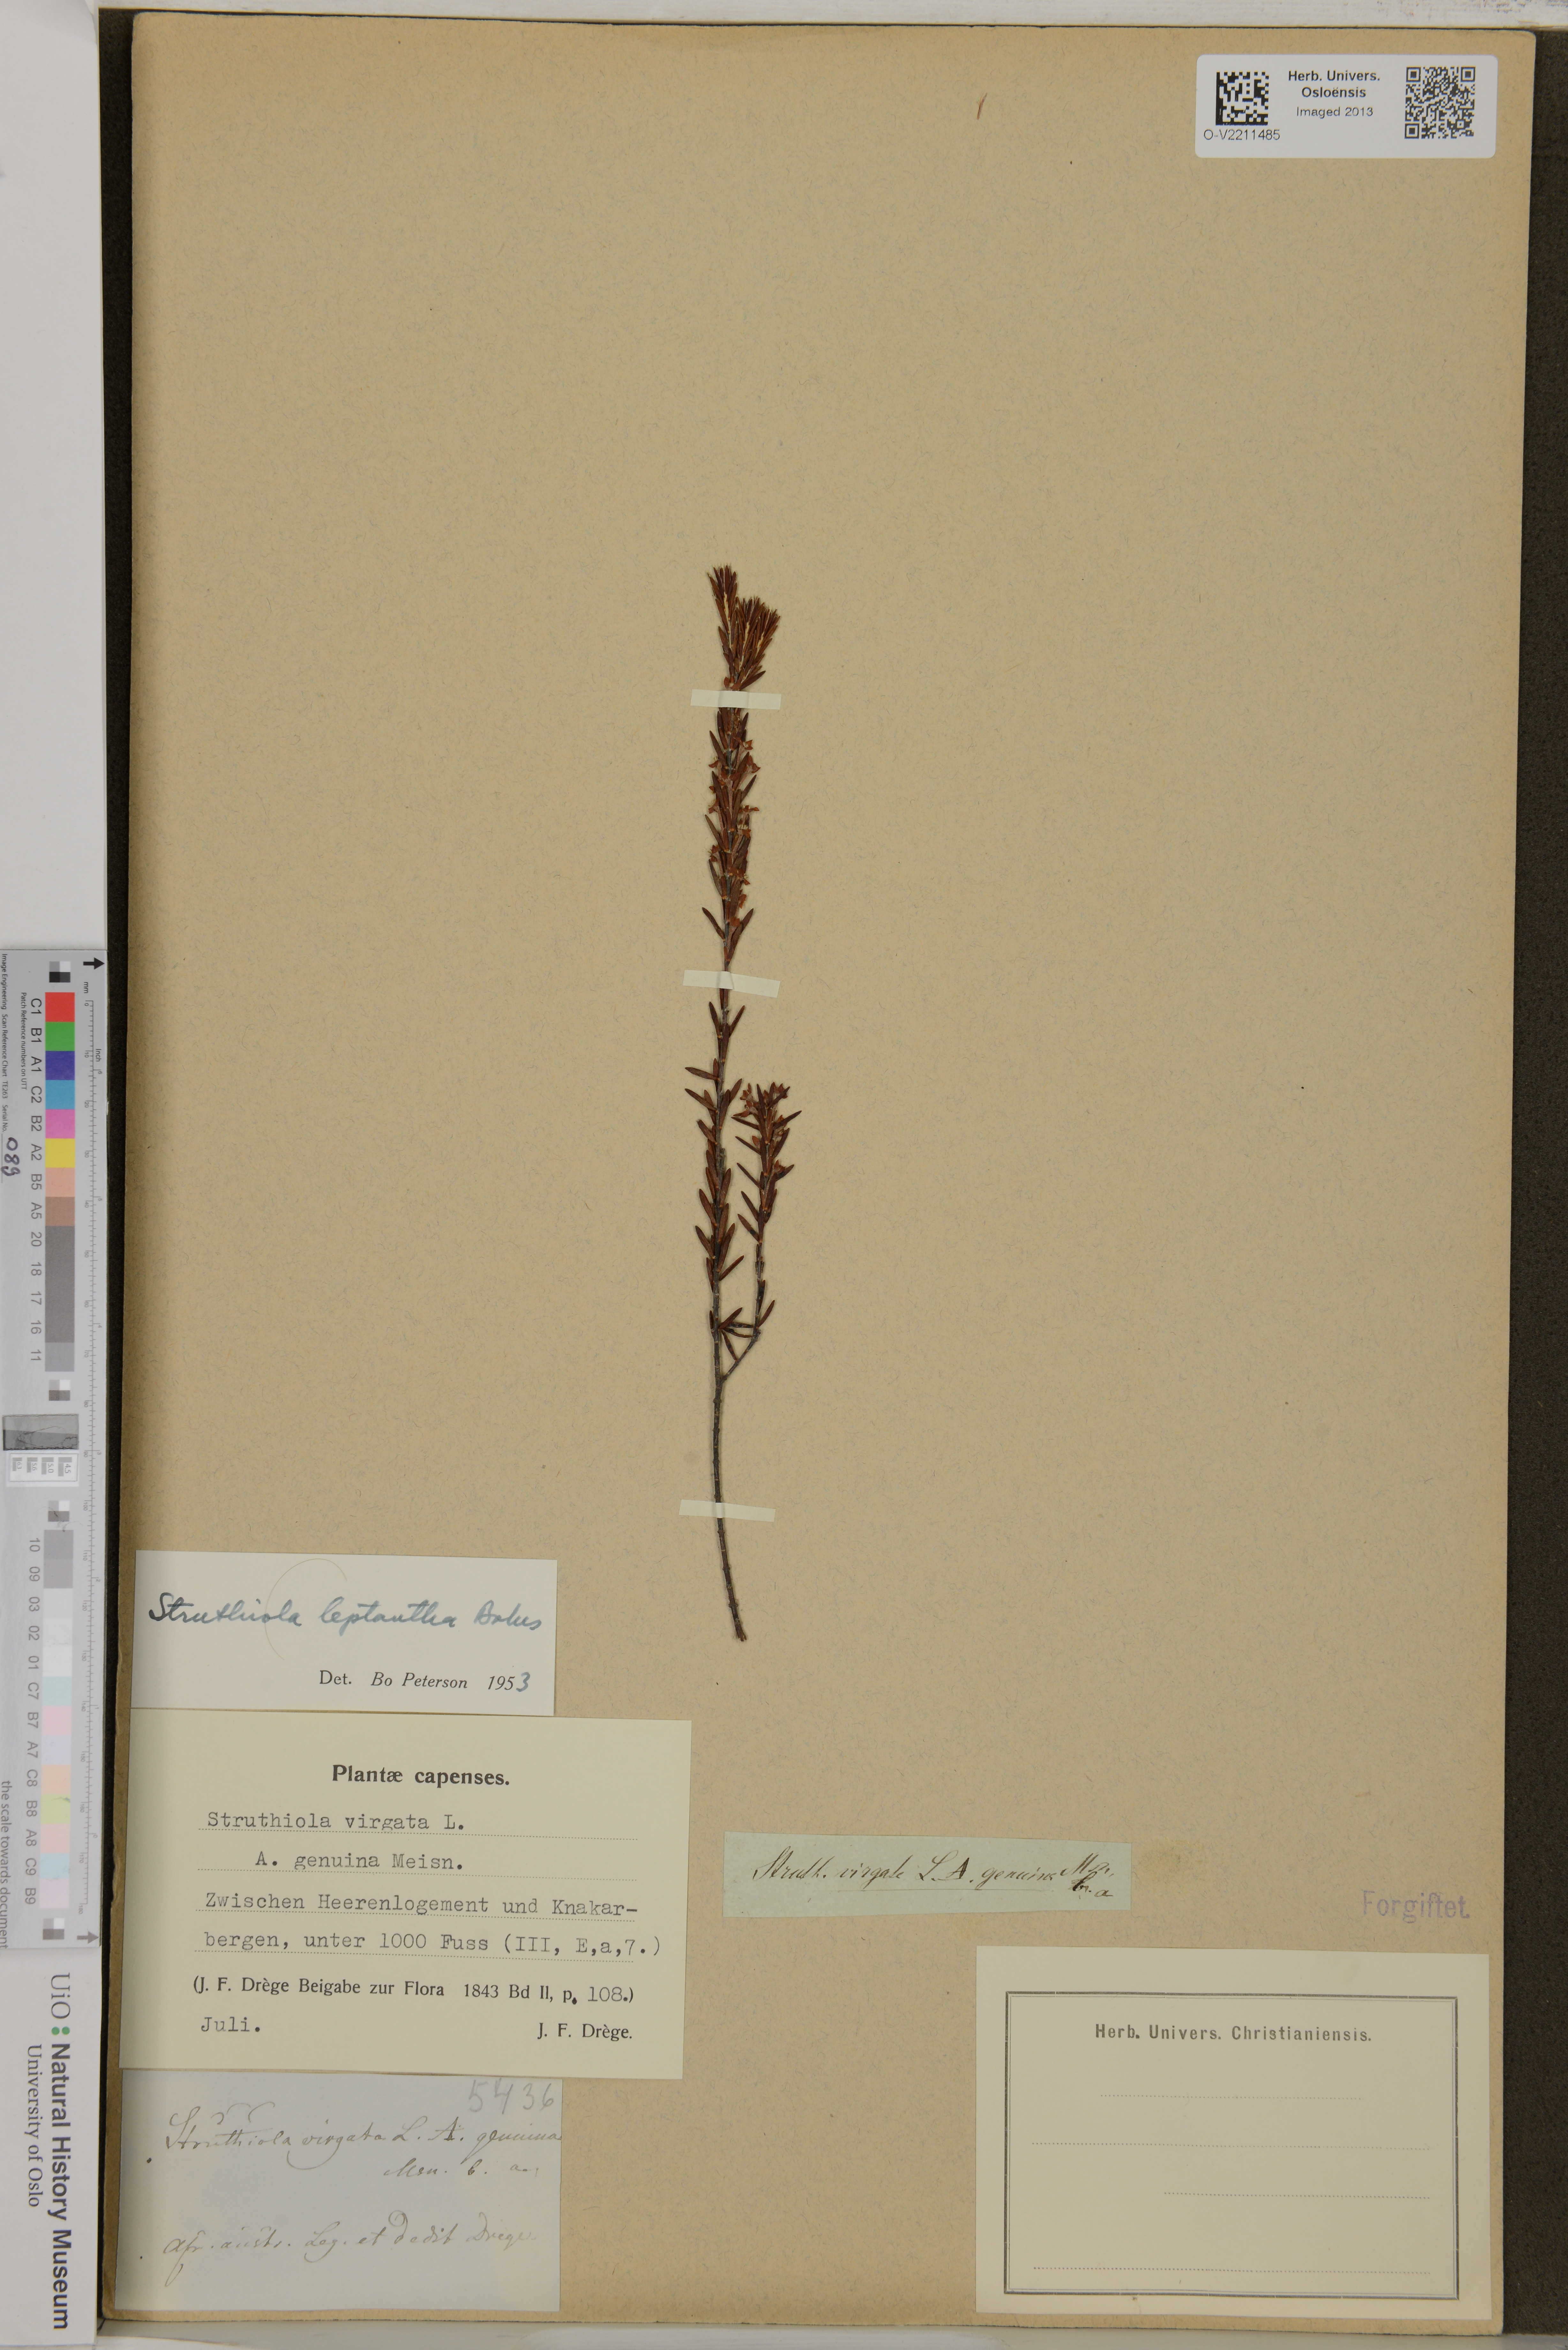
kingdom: Plantae
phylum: Tracheophyta
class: Magnoliopsida
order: Malvales
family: Thymelaeaceae
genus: Struthiola
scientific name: Struthiola
